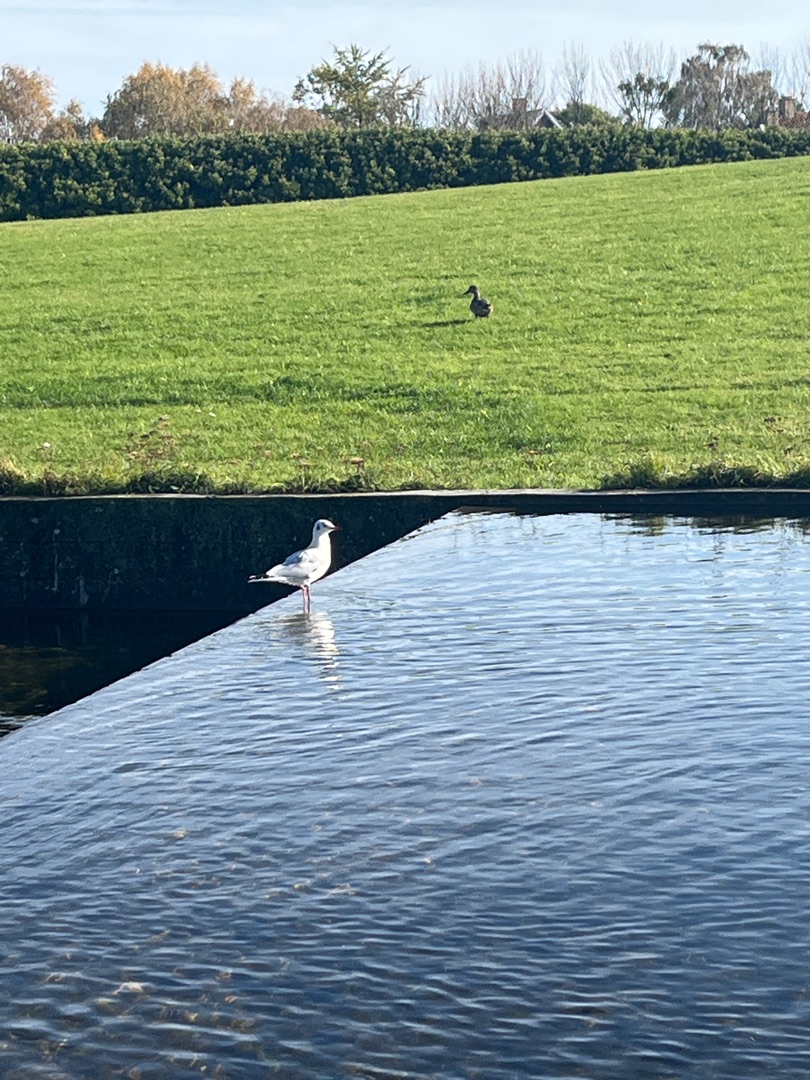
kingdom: Animalia
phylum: Chordata
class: Aves
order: Charadriiformes
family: Laridae
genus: Chroicocephalus
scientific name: Chroicocephalus ridibundus
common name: Hættemåge
